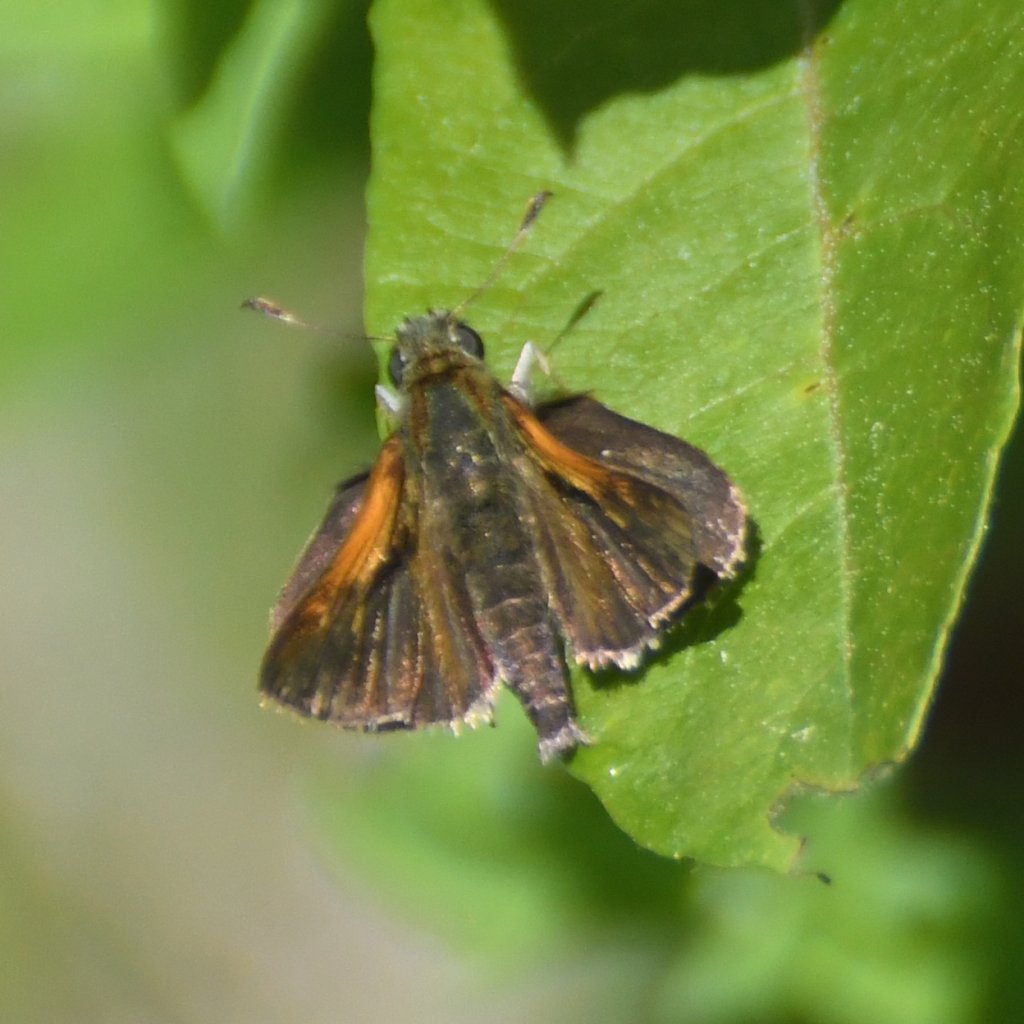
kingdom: Animalia
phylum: Arthropoda
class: Insecta
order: Lepidoptera
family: Hesperiidae
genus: Polites
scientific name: Polites themistocles
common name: Tawny-edged Skipper
